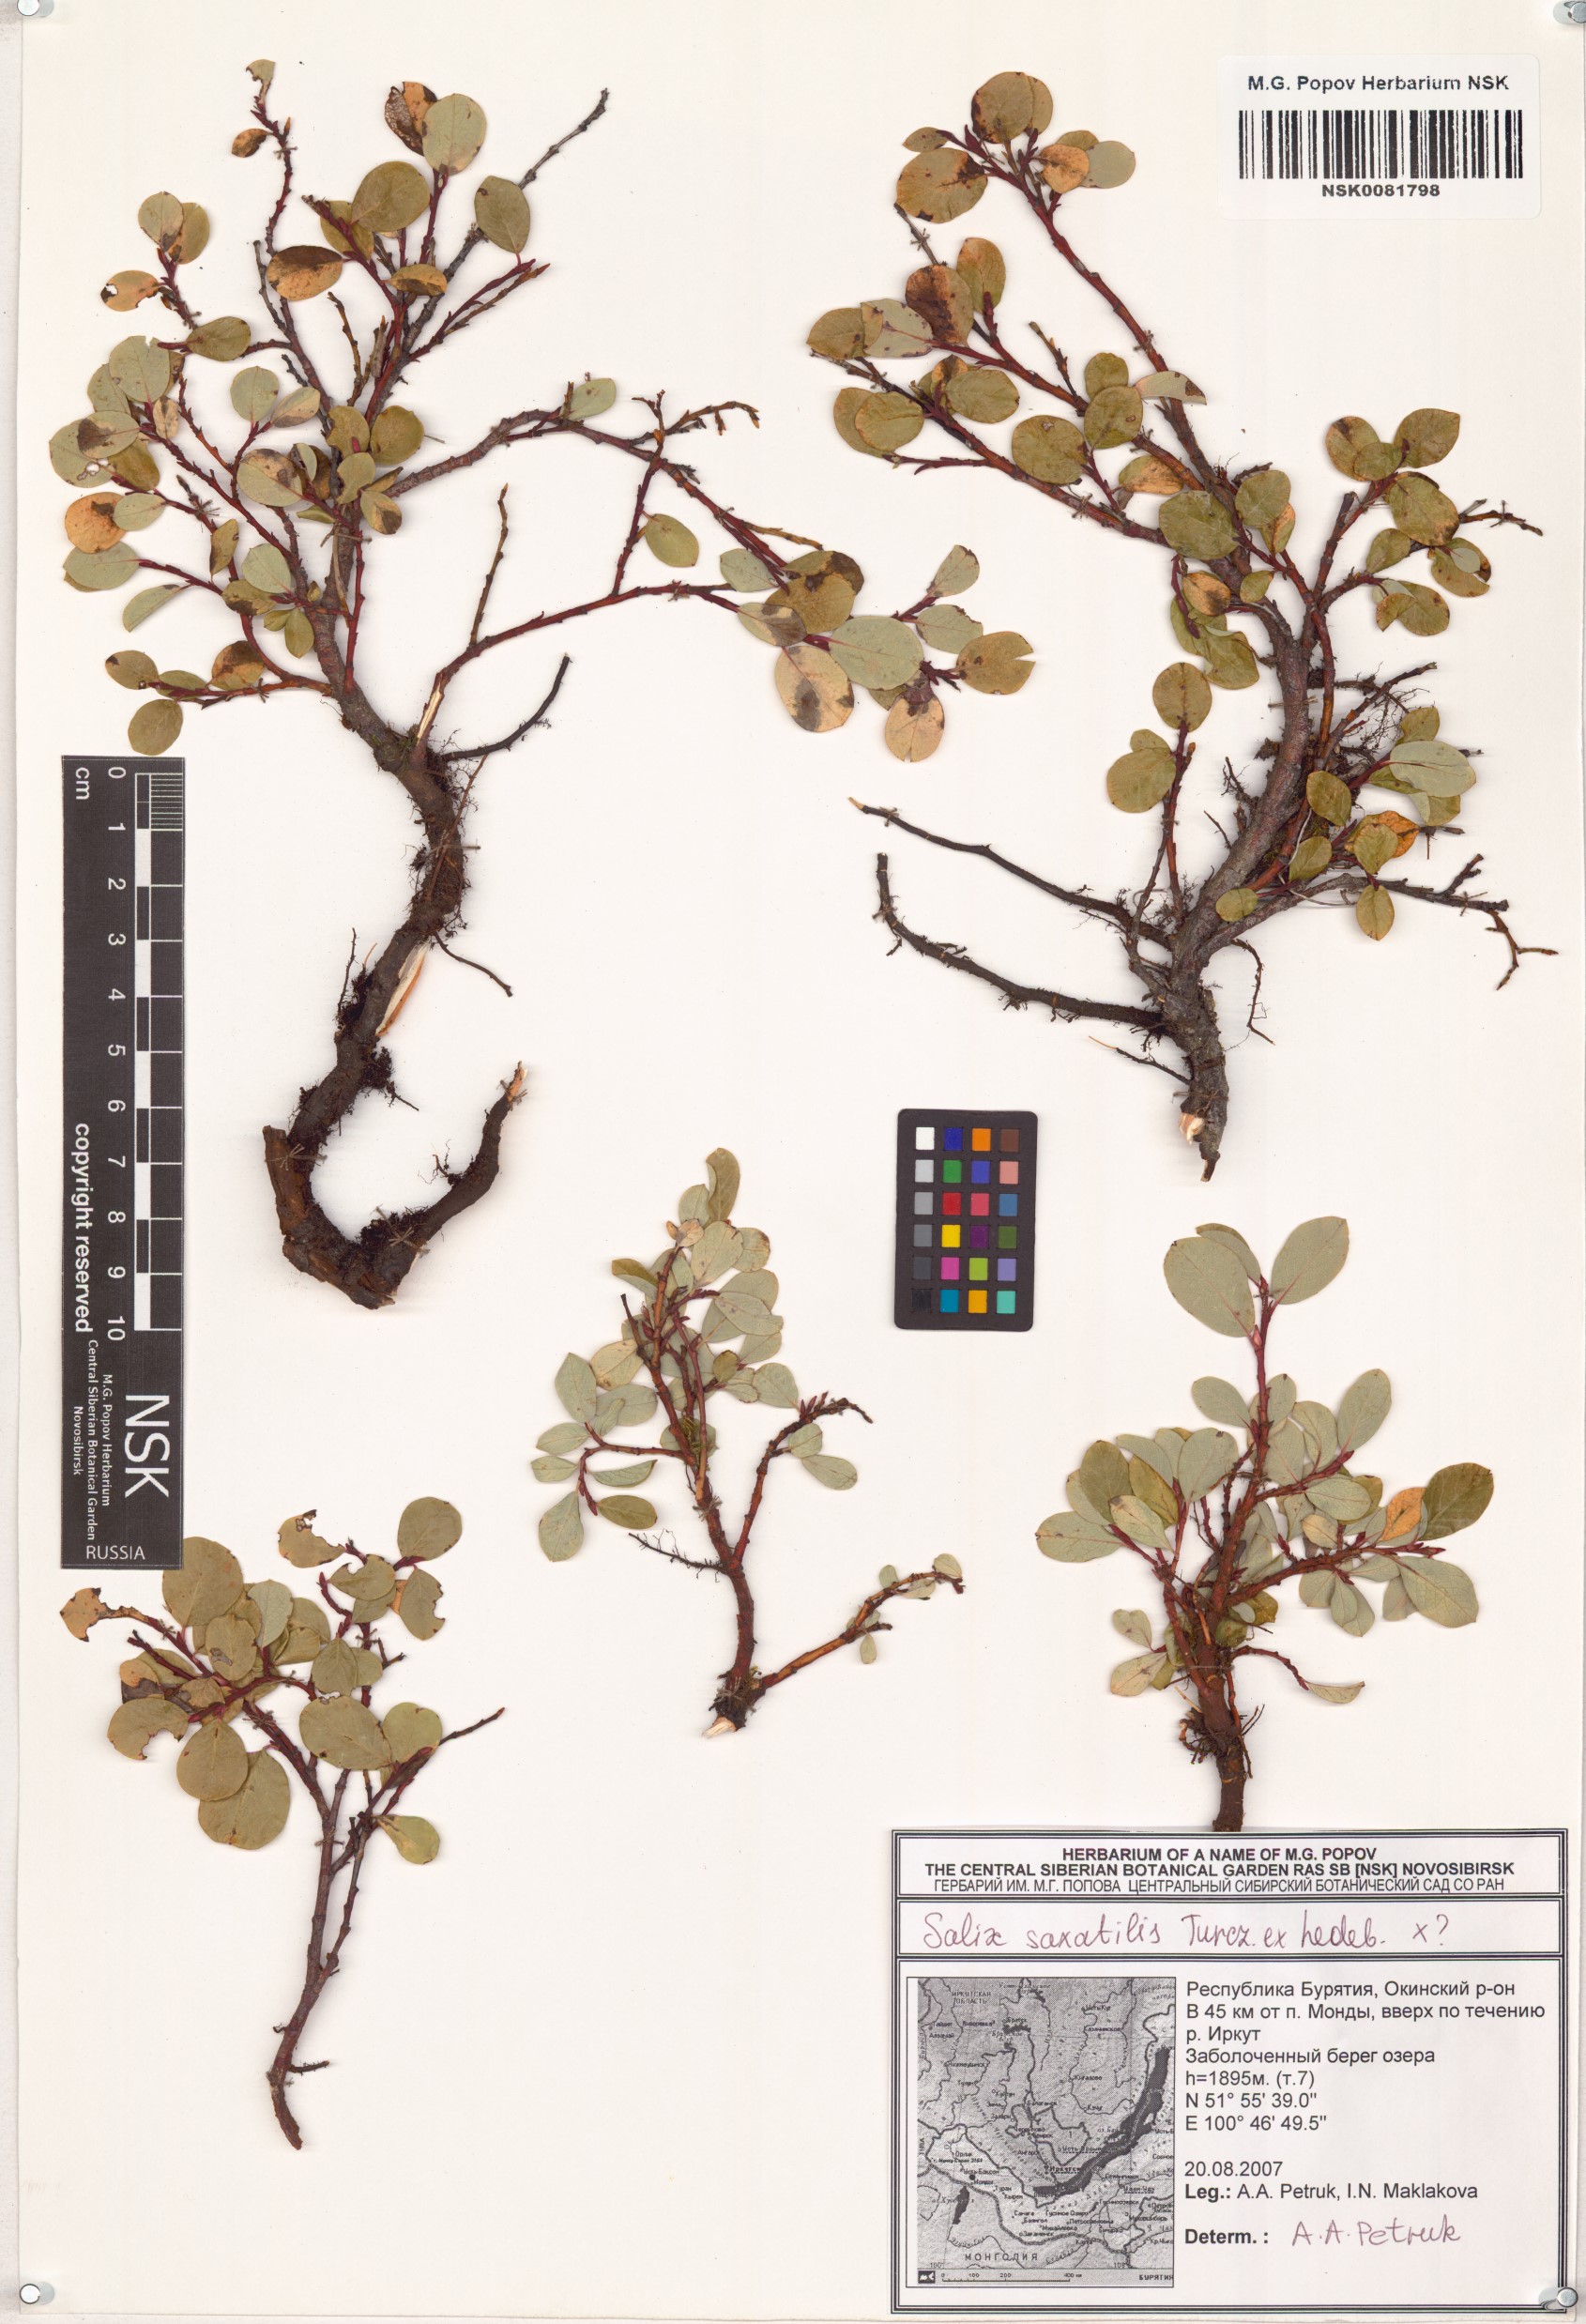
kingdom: Plantae
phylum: Tracheophyta
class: Magnoliopsida
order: Malpighiales
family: Salicaceae
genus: Salix
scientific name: Salix saxatilis
